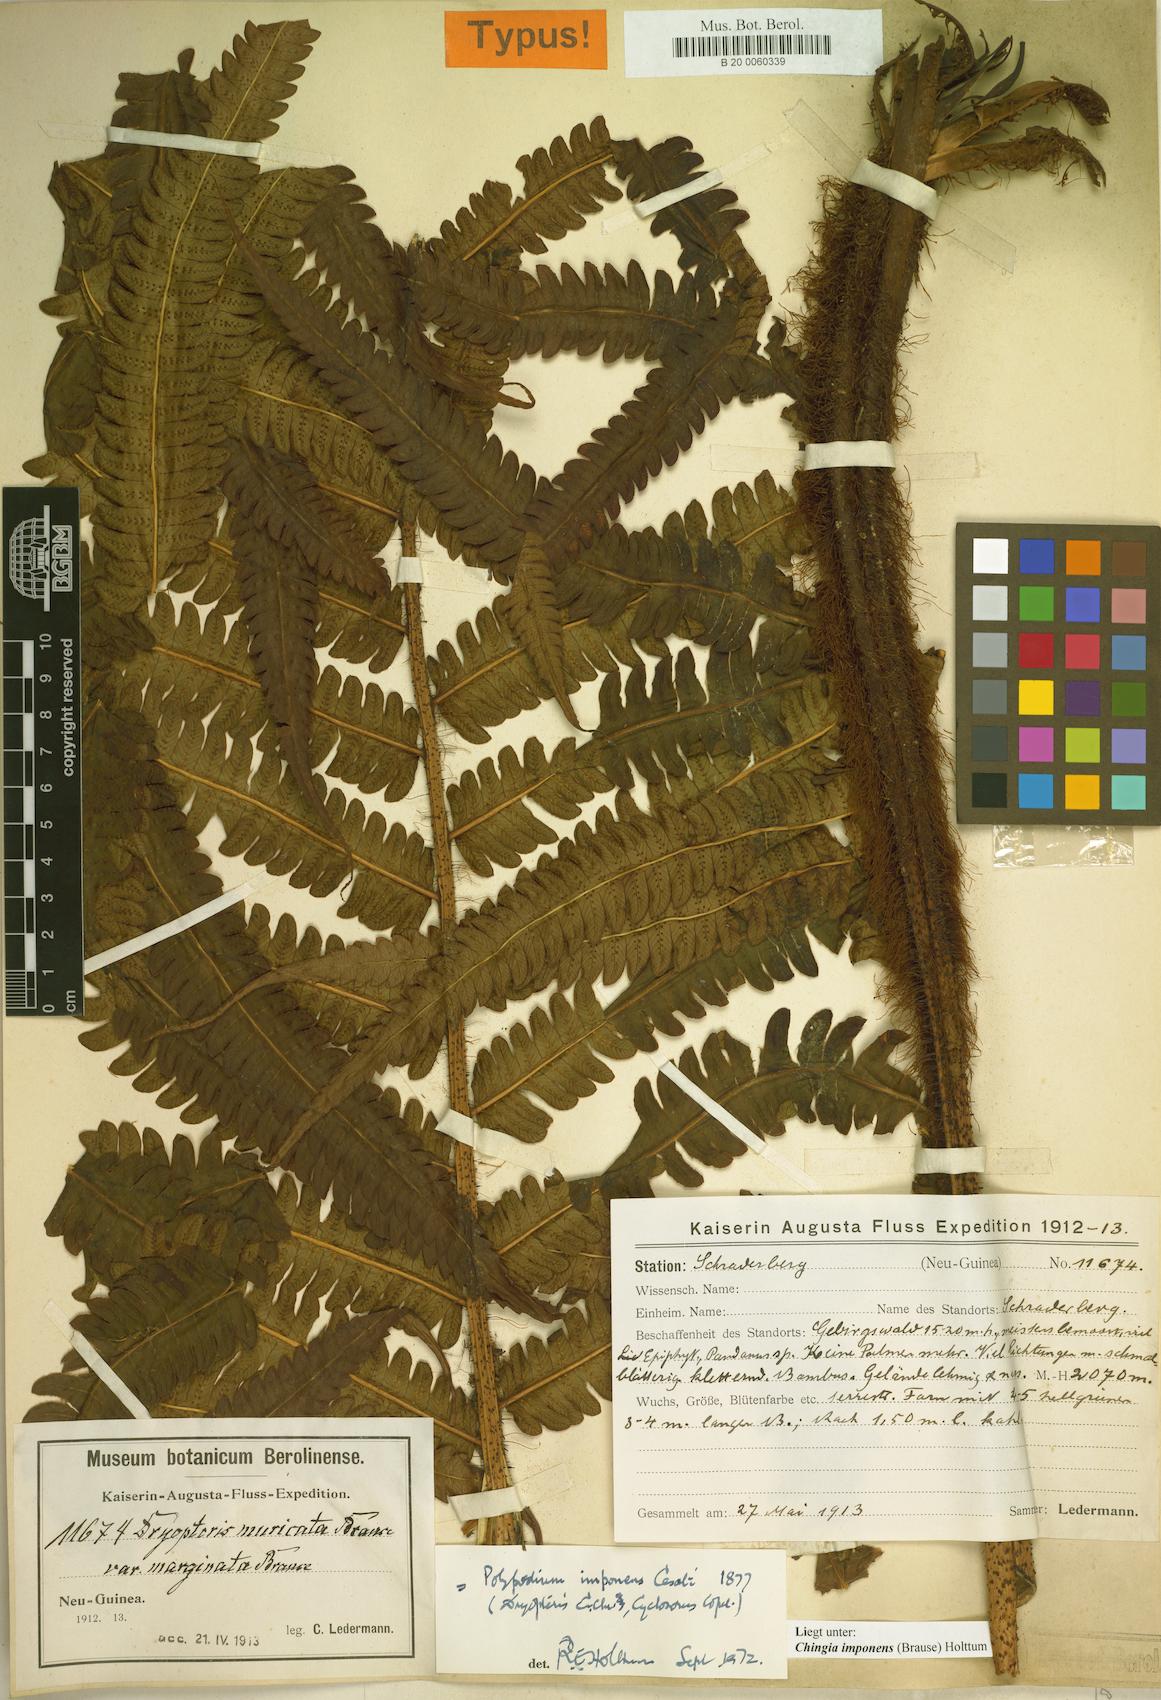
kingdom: Plantae
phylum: Tracheophyta
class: Polypodiopsida
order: Polypodiales
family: Thelypteridaceae
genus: Chingia
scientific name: Chingia imponens
